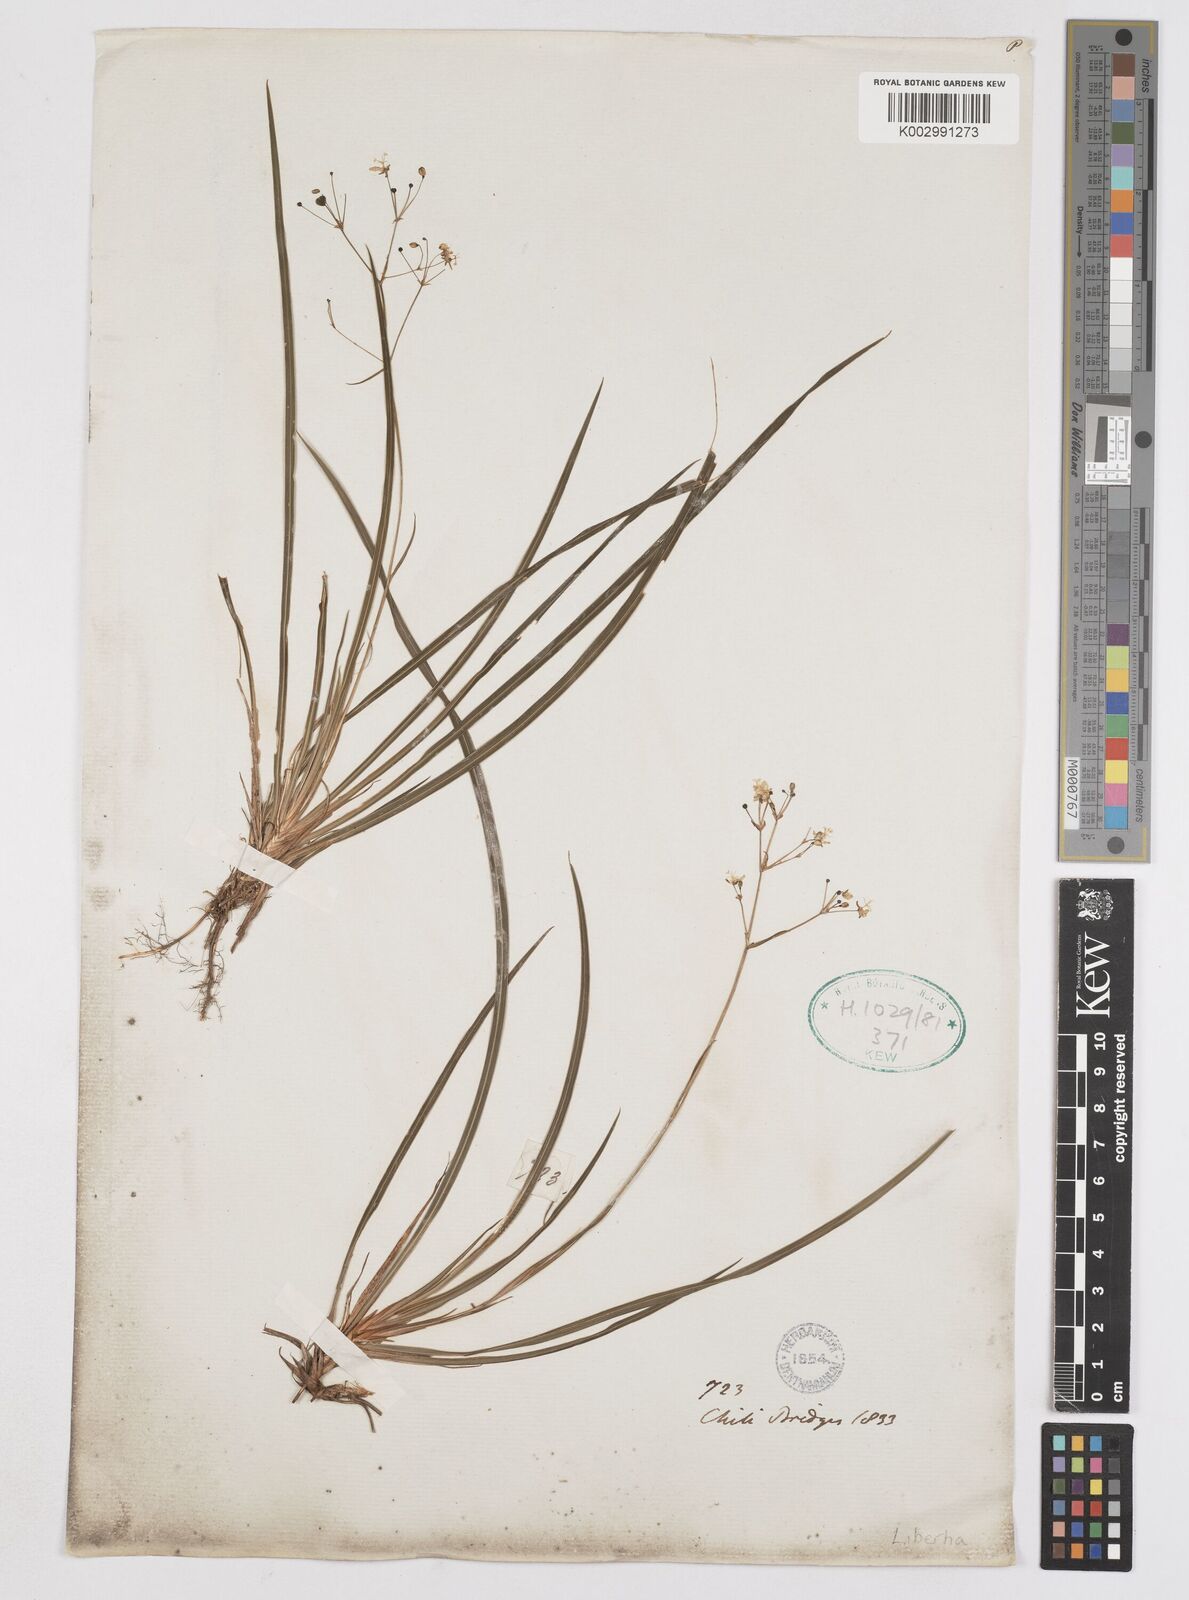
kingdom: Plantae
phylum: Tracheophyta
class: Liliopsida
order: Asparagales
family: Iridaceae
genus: Libertia
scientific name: Libertia tricocca
